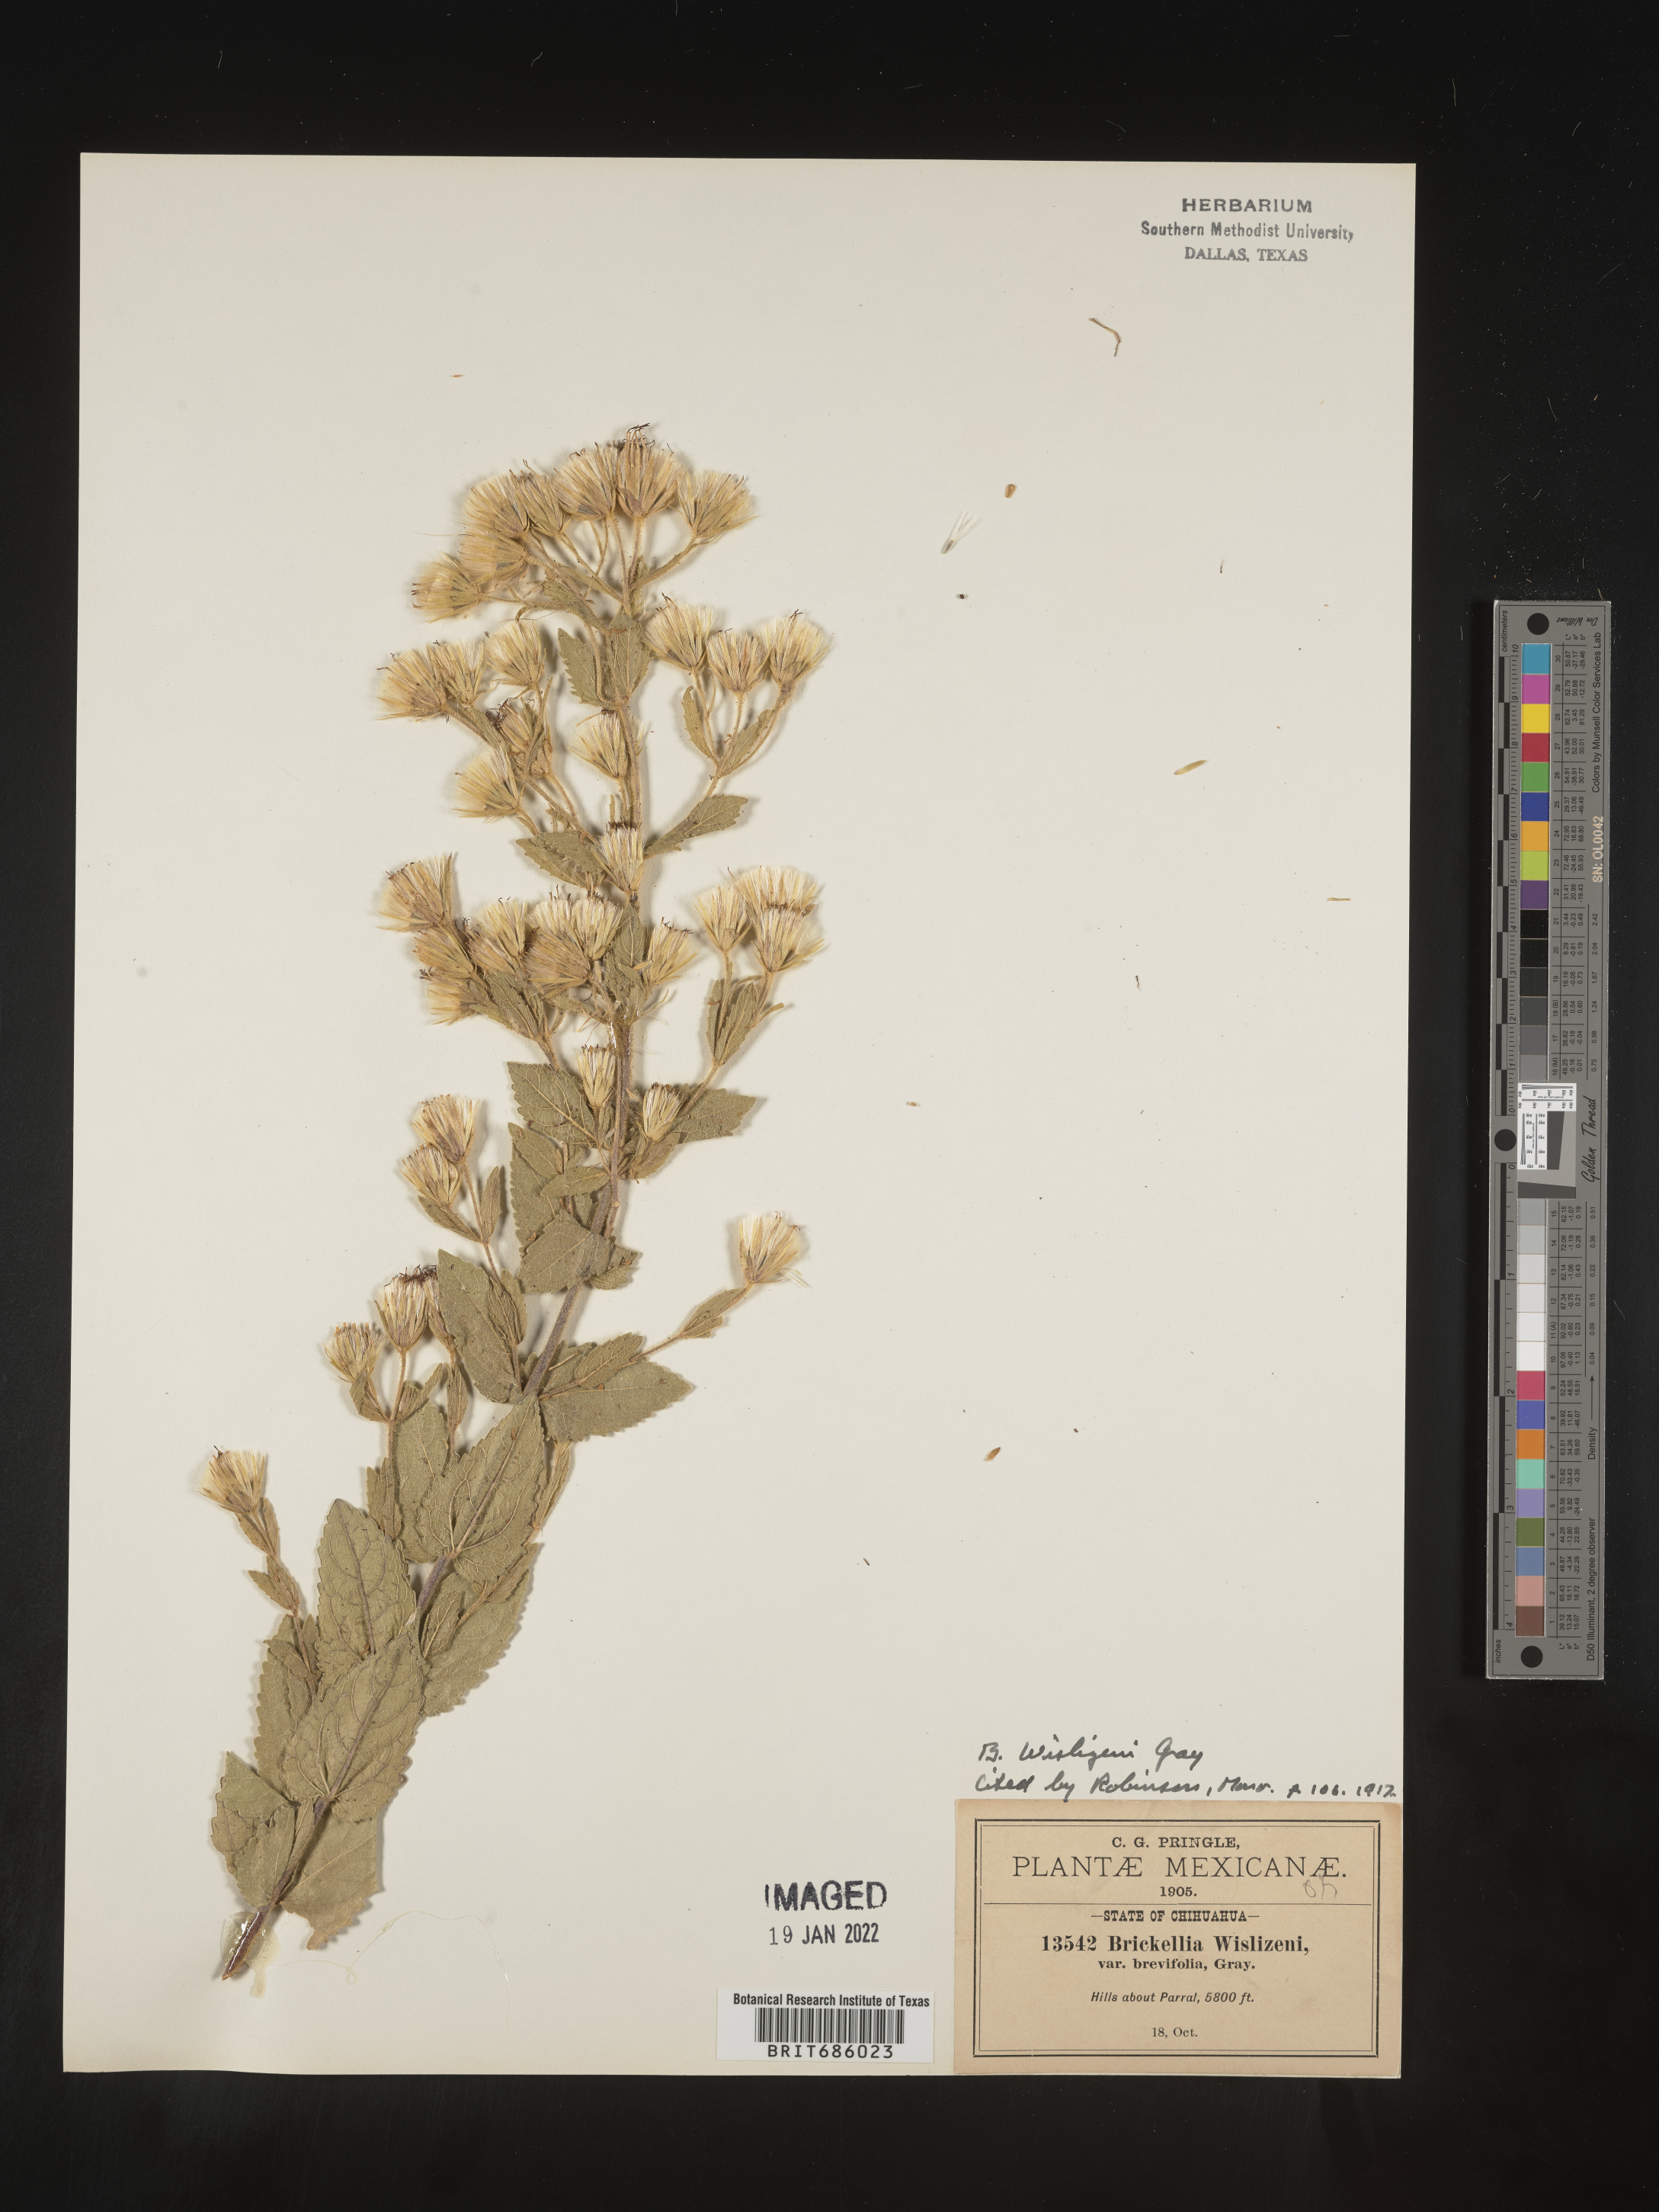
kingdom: Plantae
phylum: Tracheophyta
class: Magnoliopsida
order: Asterales
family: Asteraceae
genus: Brickellia
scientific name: Brickellia
